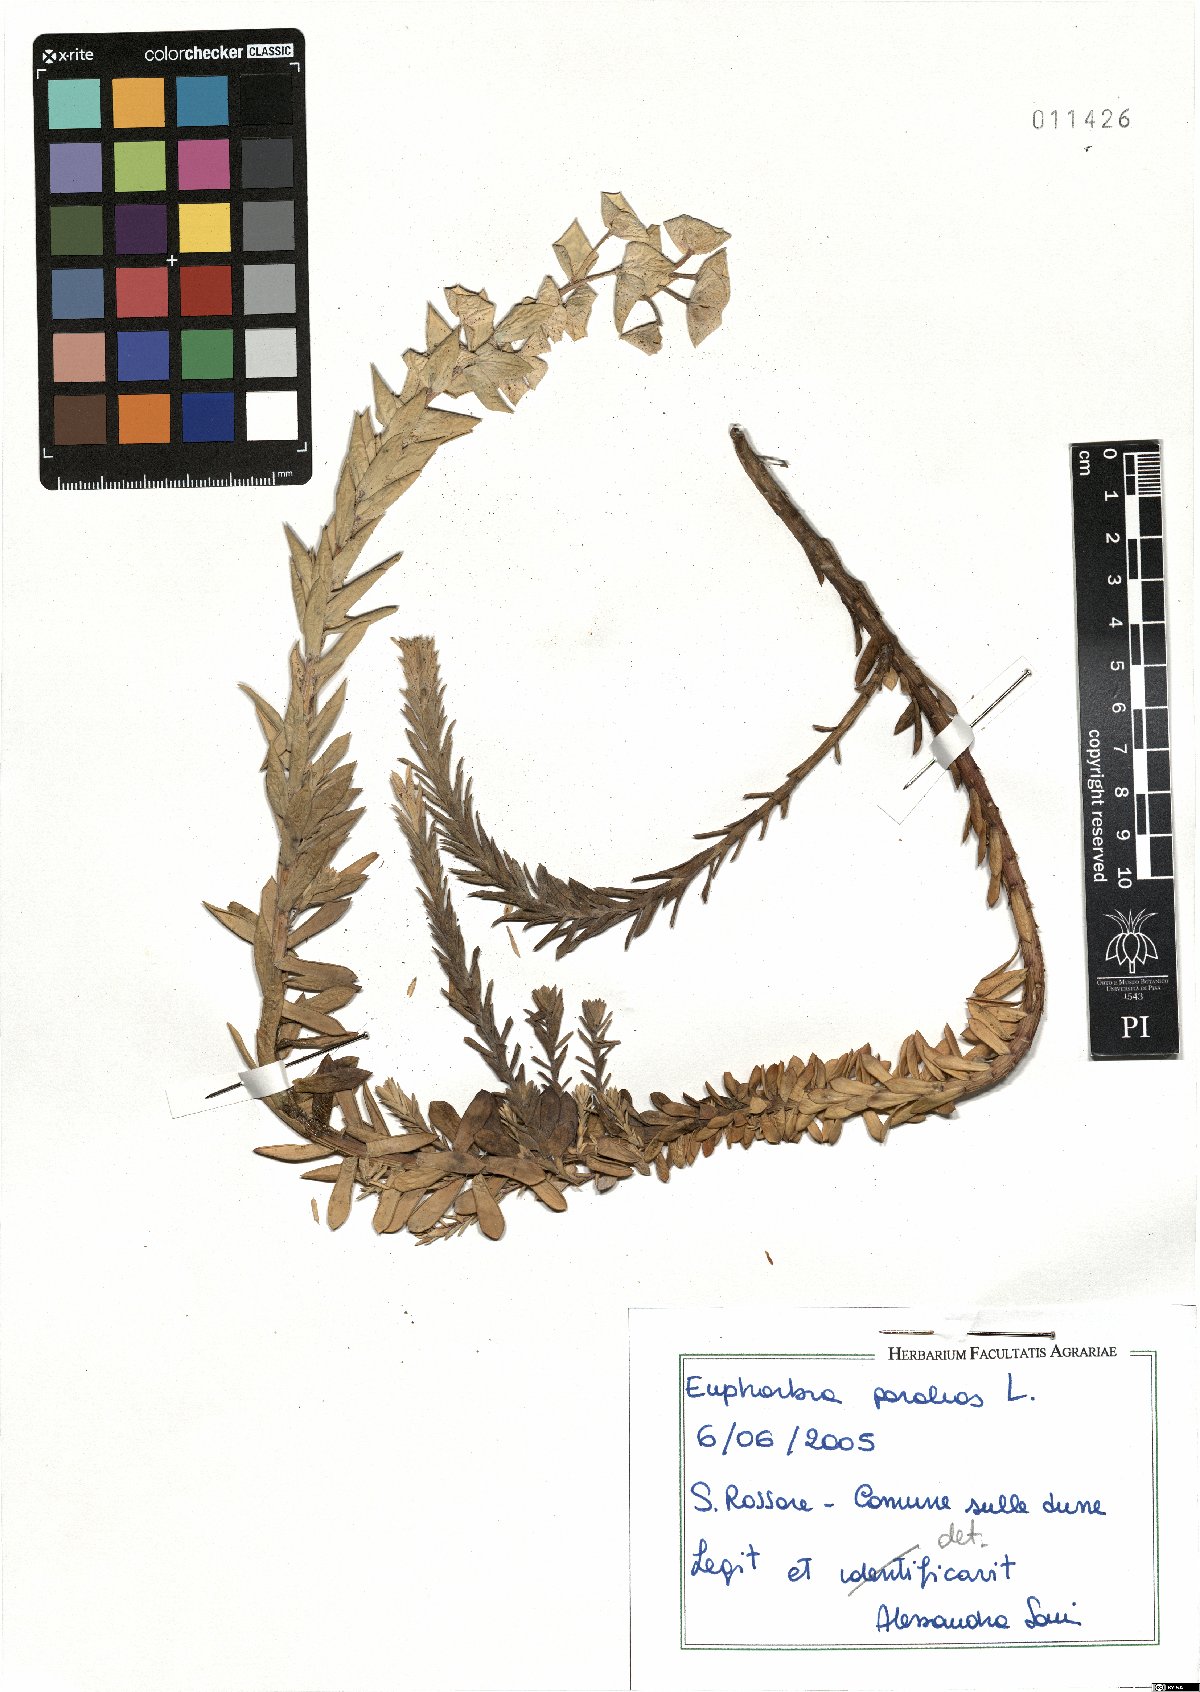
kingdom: Plantae
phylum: Tracheophyta
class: Magnoliopsida
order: Malpighiales
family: Euphorbiaceae
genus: Euphorbia
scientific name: Euphorbia paralias
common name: Sea spurge
